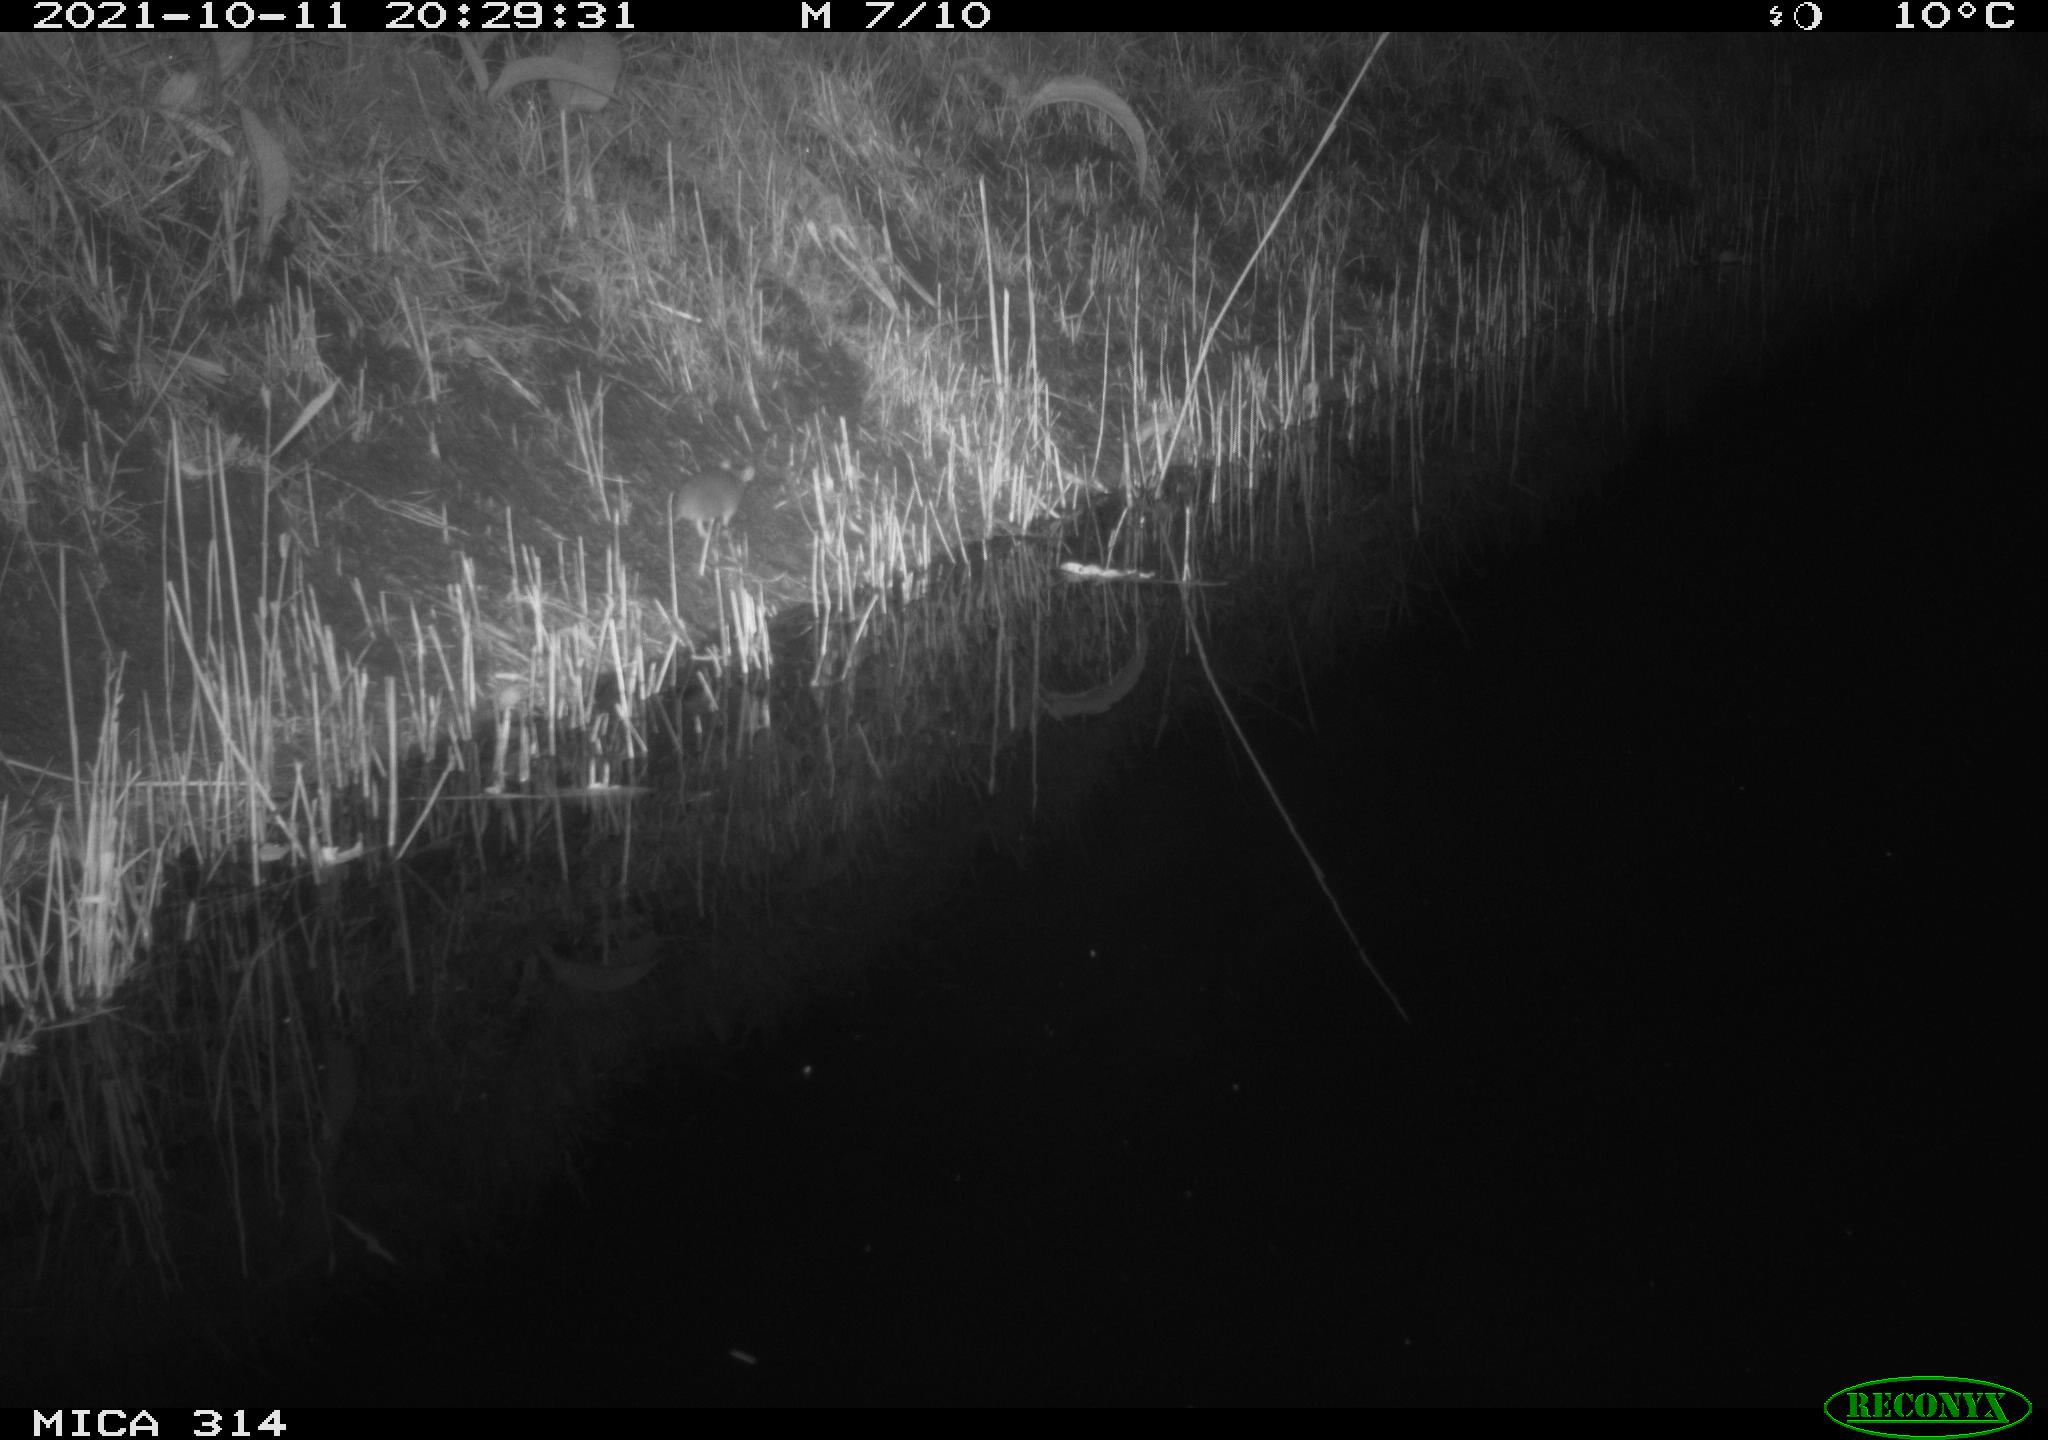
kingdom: Animalia
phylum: Chordata
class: Mammalia
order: Rodentia
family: Muridae
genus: Rattus
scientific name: Rattus norvegicus
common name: Brown rat
